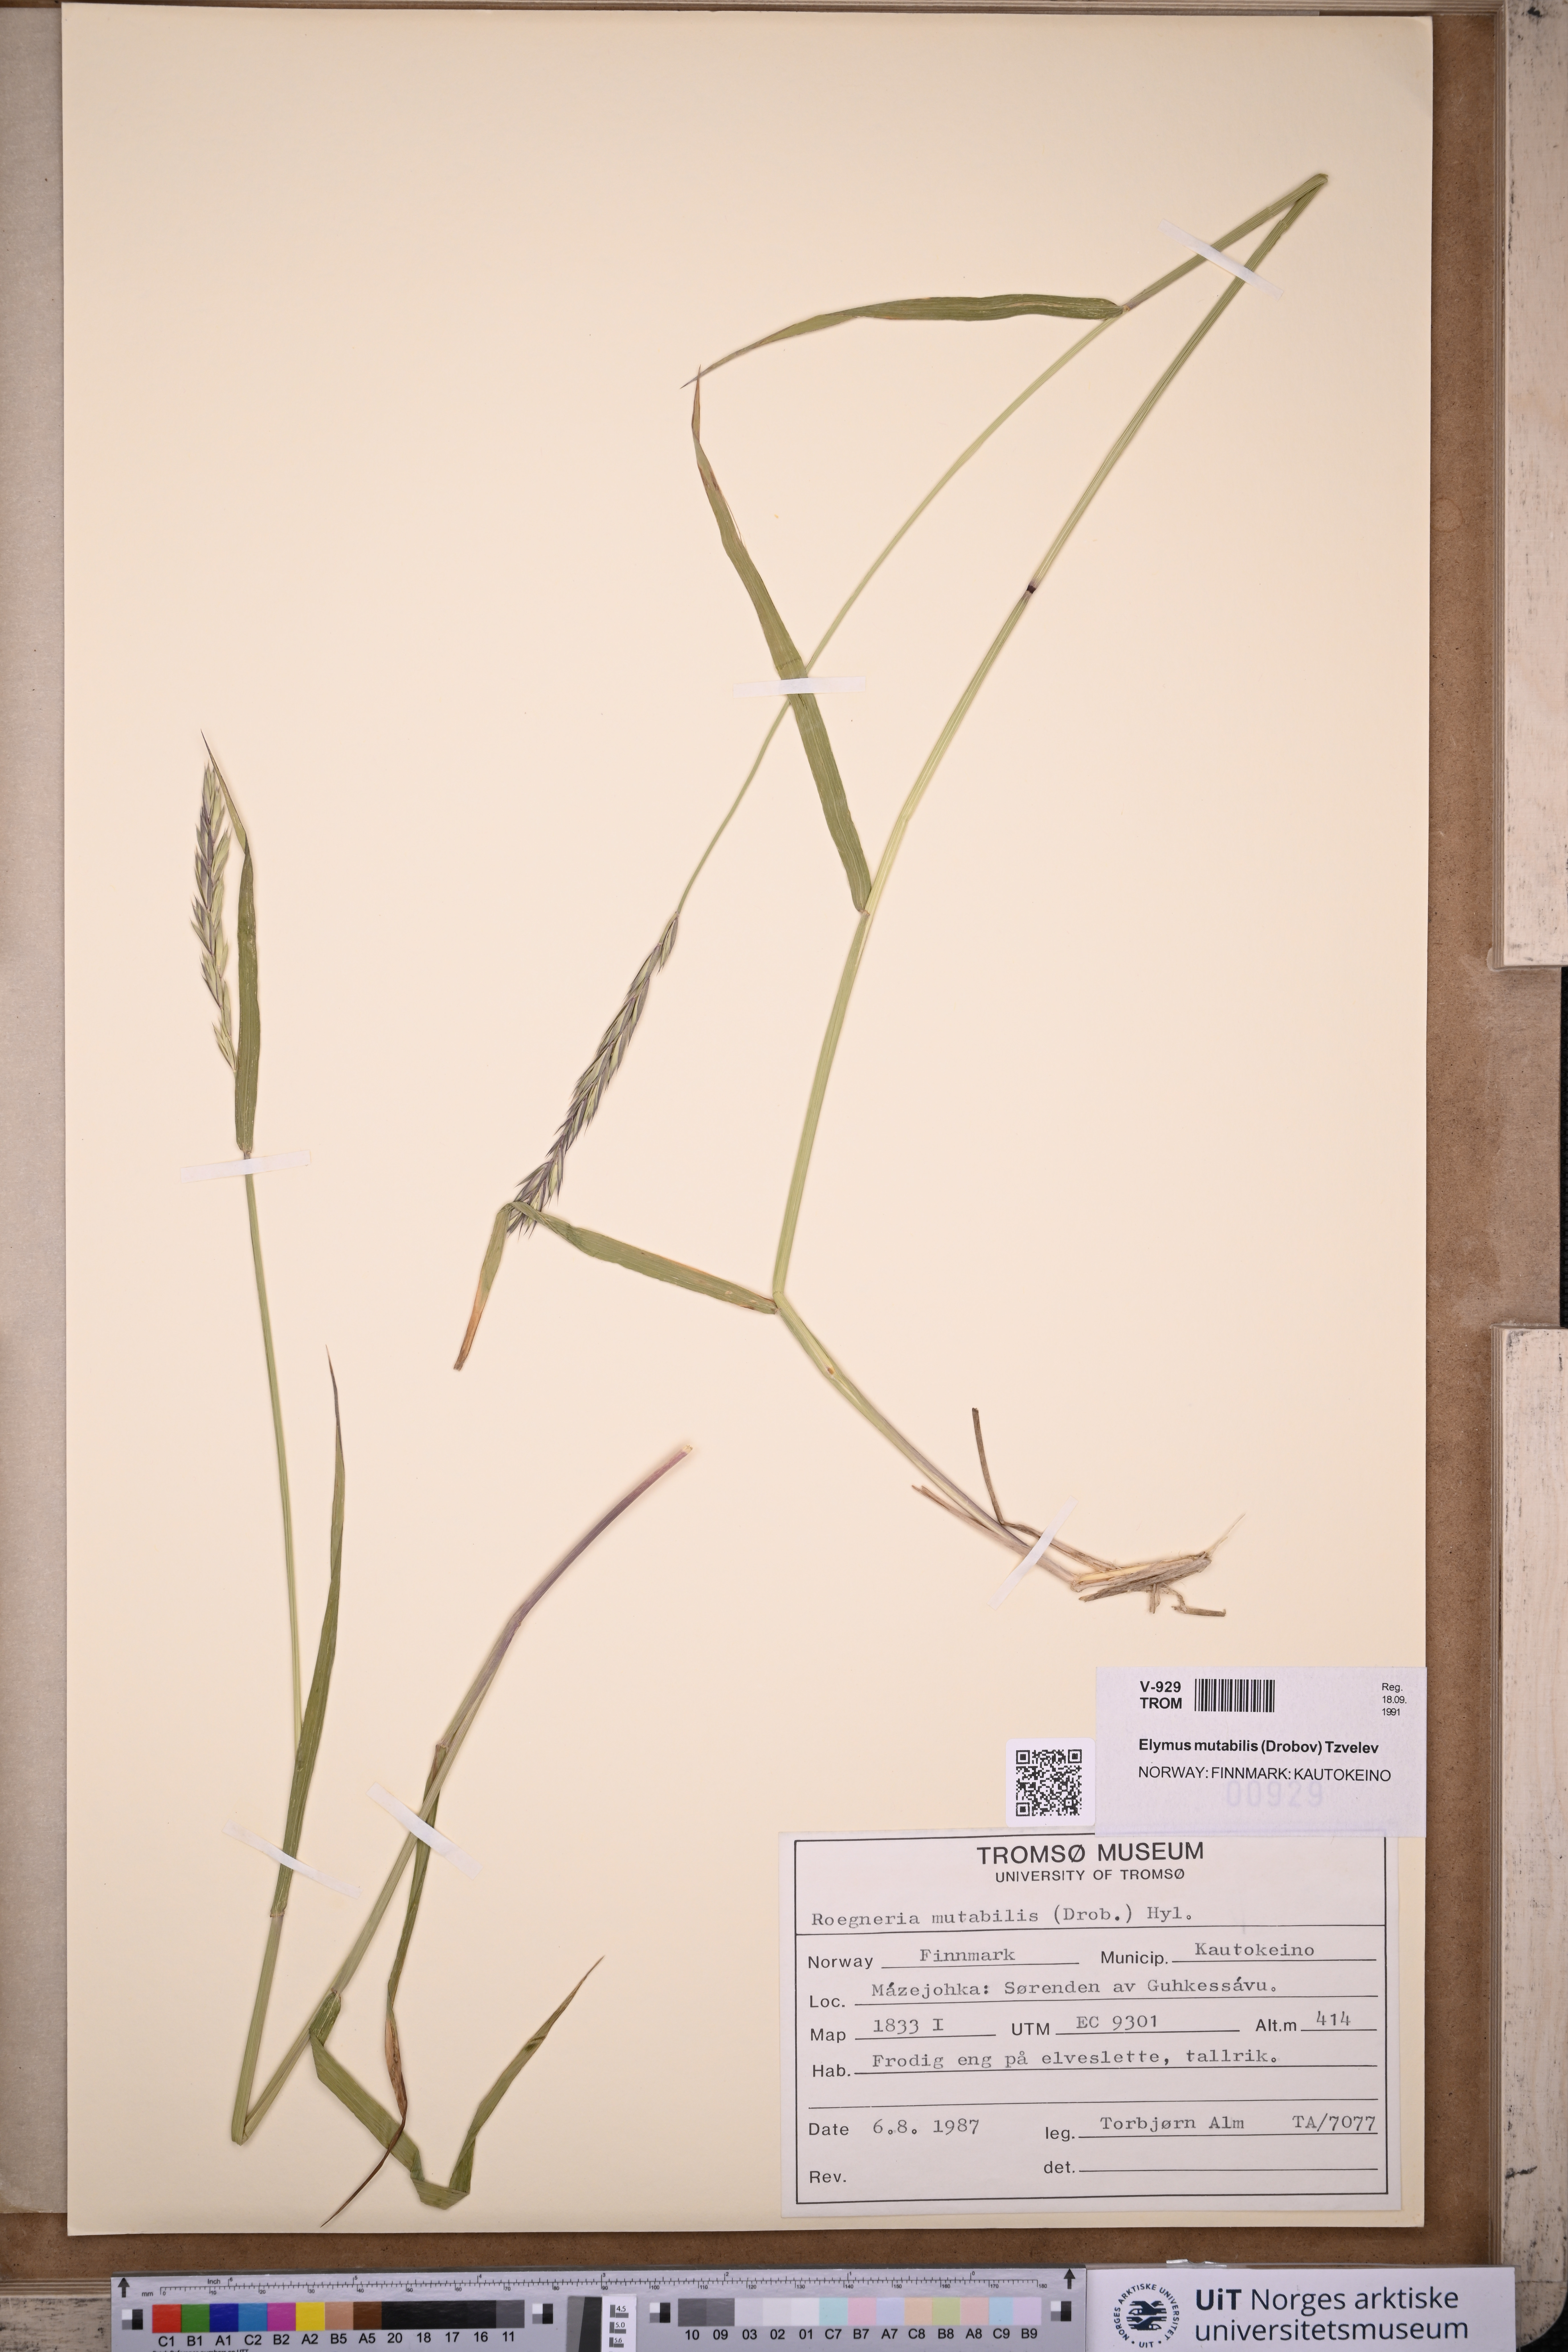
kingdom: Plantae
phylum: Tracheophyta
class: Liliopsida
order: Poales
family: Poaceae
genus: Elymus
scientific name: Elymus mutabilis
